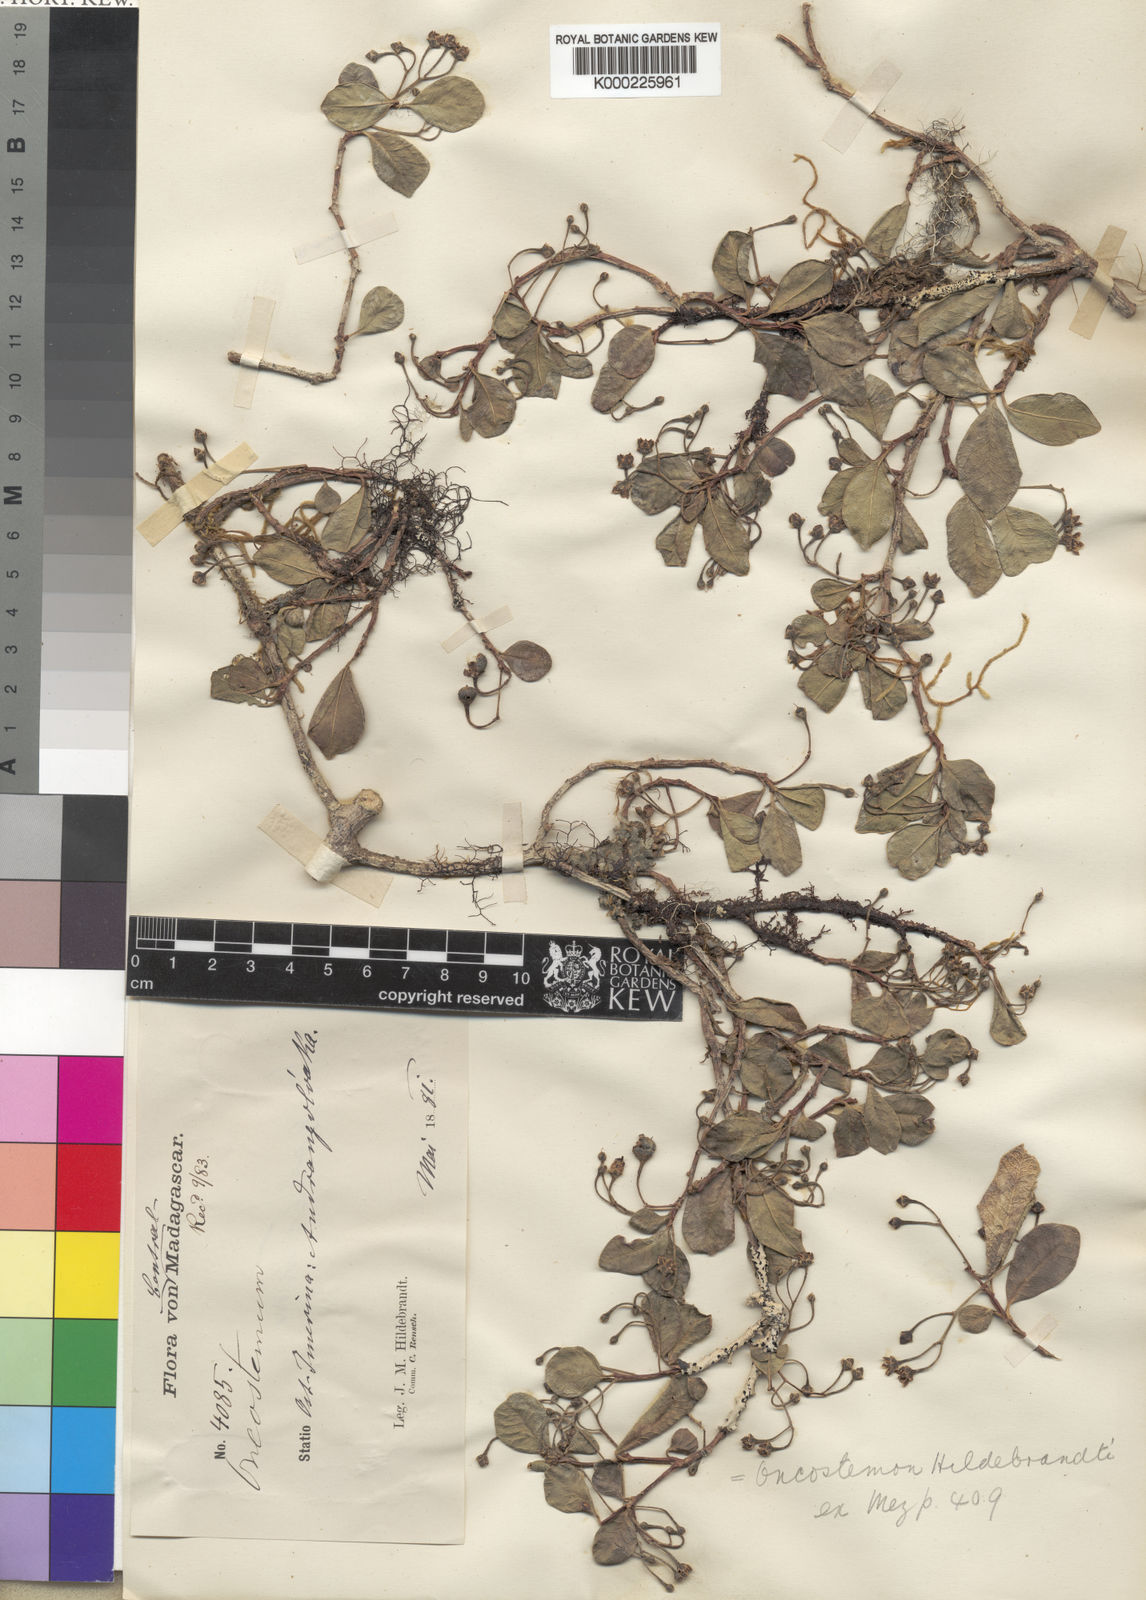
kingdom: Plantae
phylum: Tracheophyta
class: Magnoliopsida
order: Ericales
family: Primulaceae
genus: Oncostemum
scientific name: Oncostemum hildebrandtii
